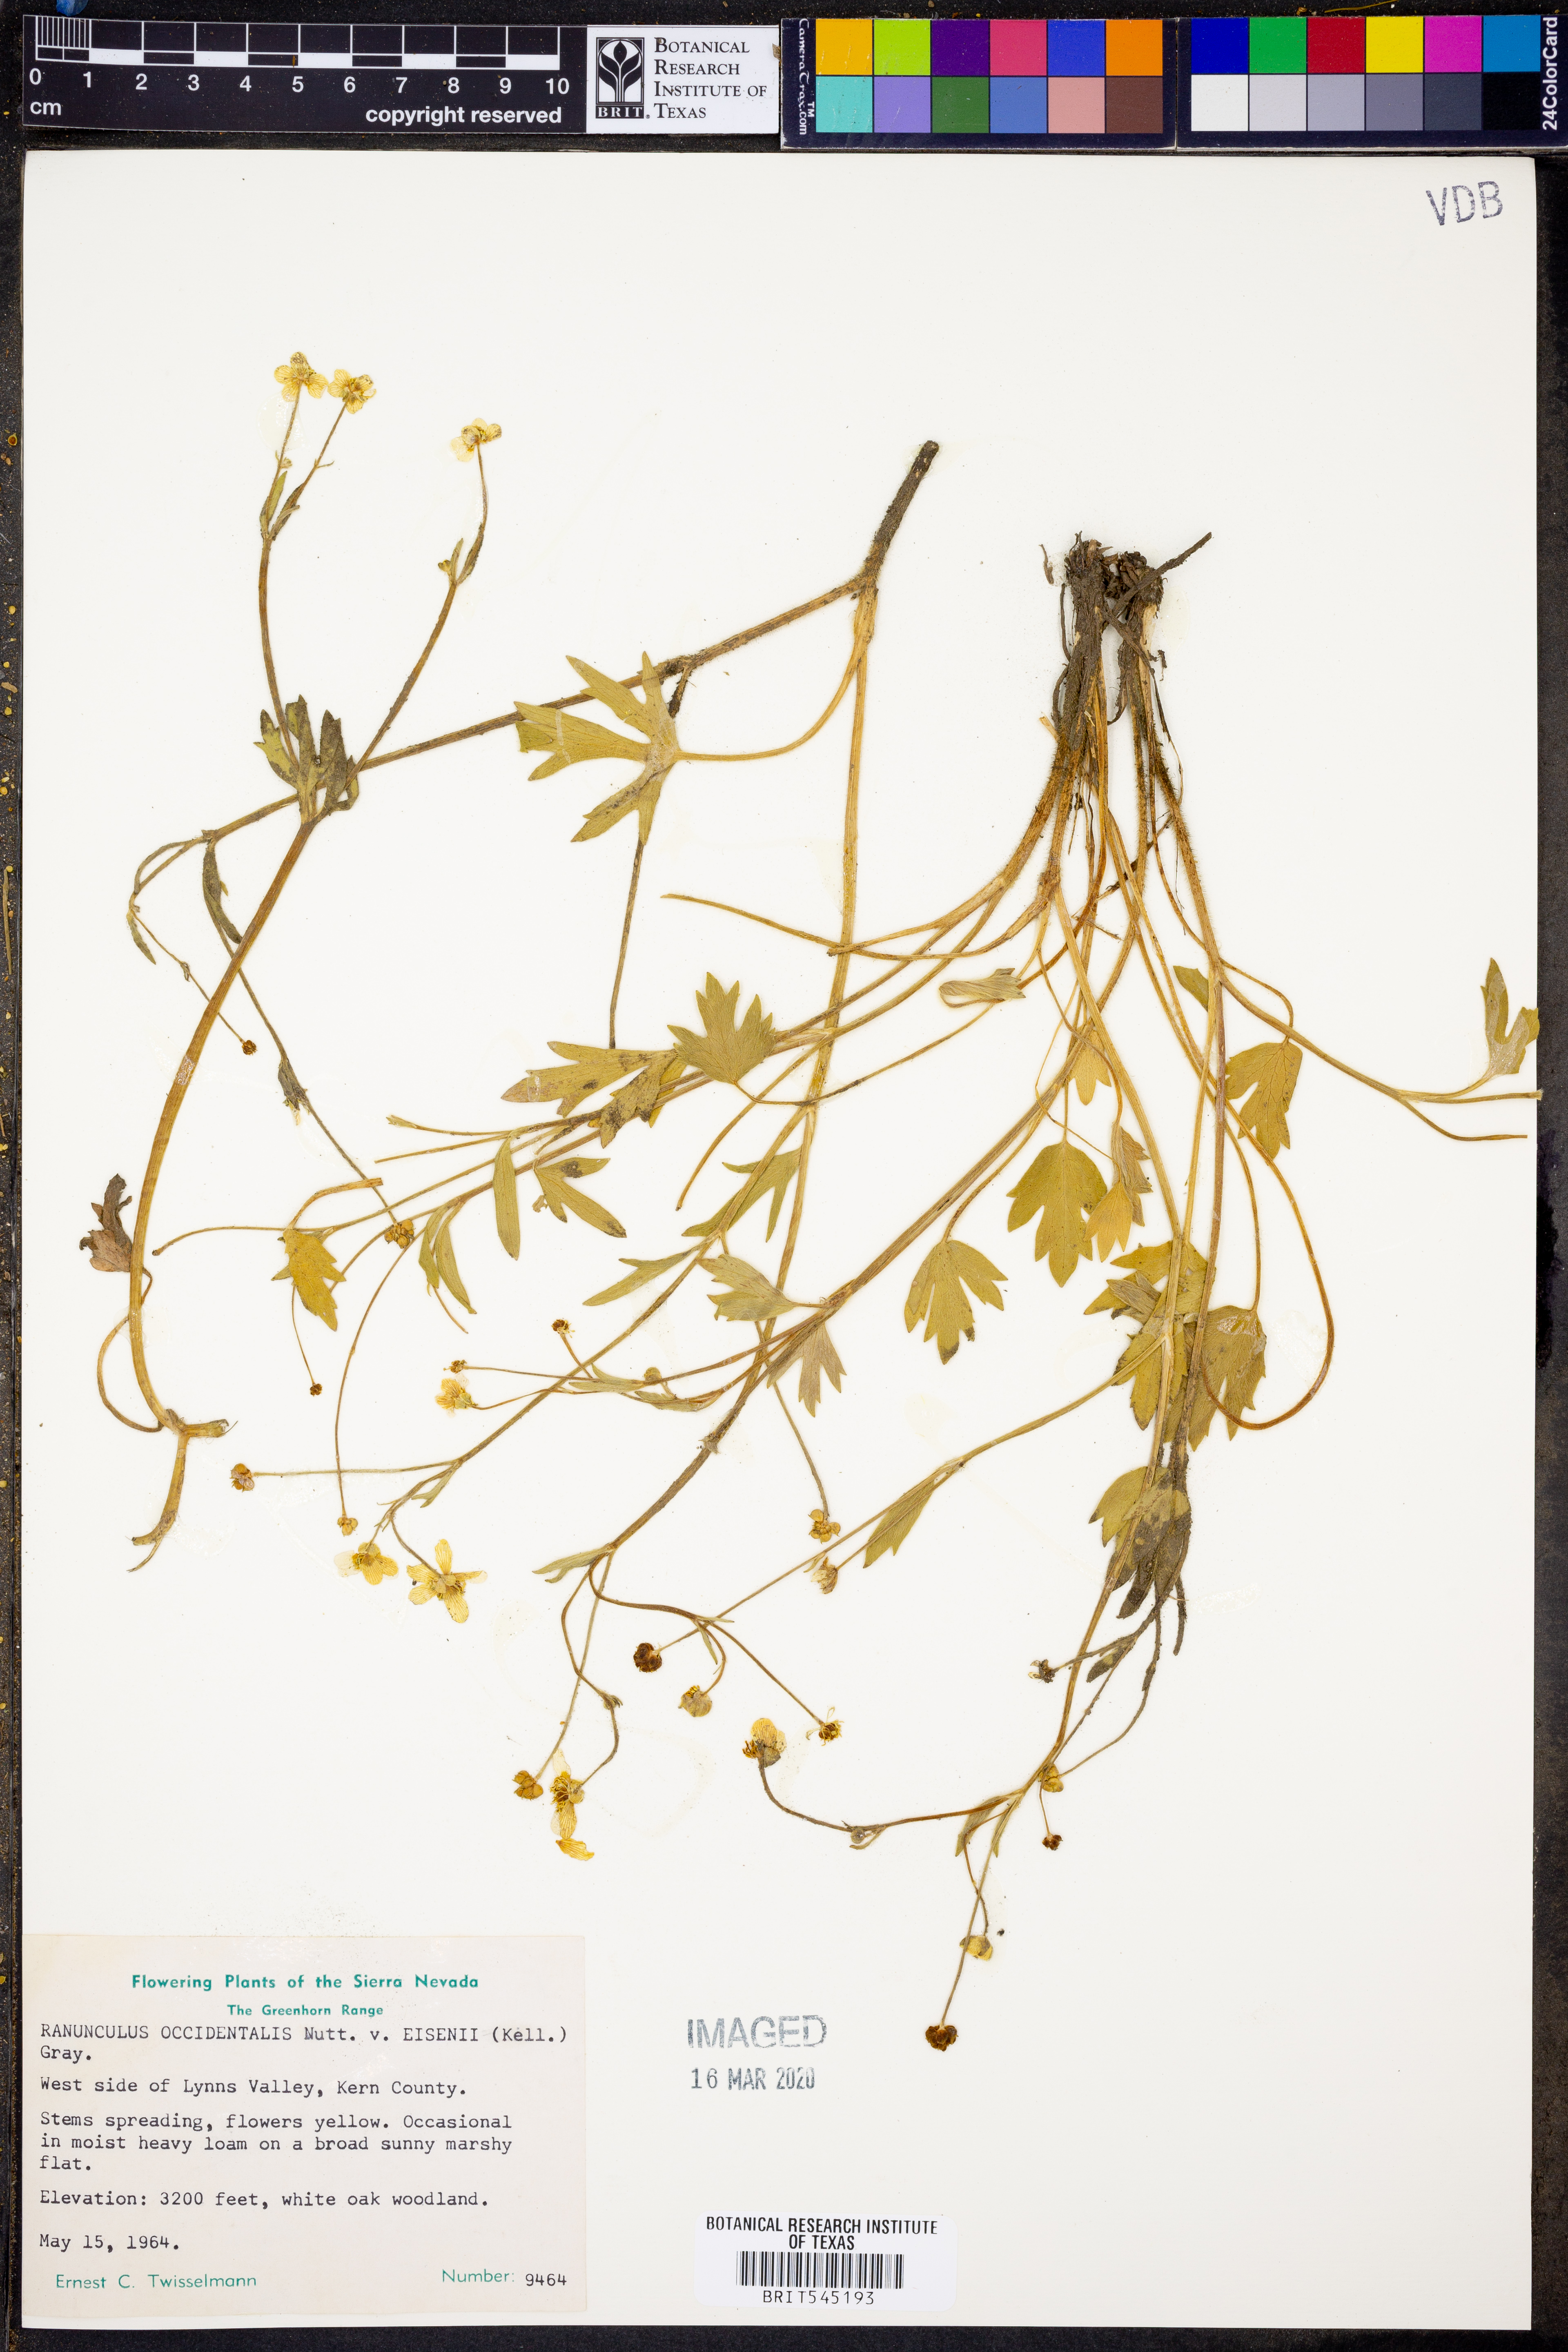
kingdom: Plantae
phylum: Tracheophyta
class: Magnoliopsida
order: Ranunculales
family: Ranunculaceae
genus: Ranunculus
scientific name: Ranunculus occidentalis
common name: Western buttercup
